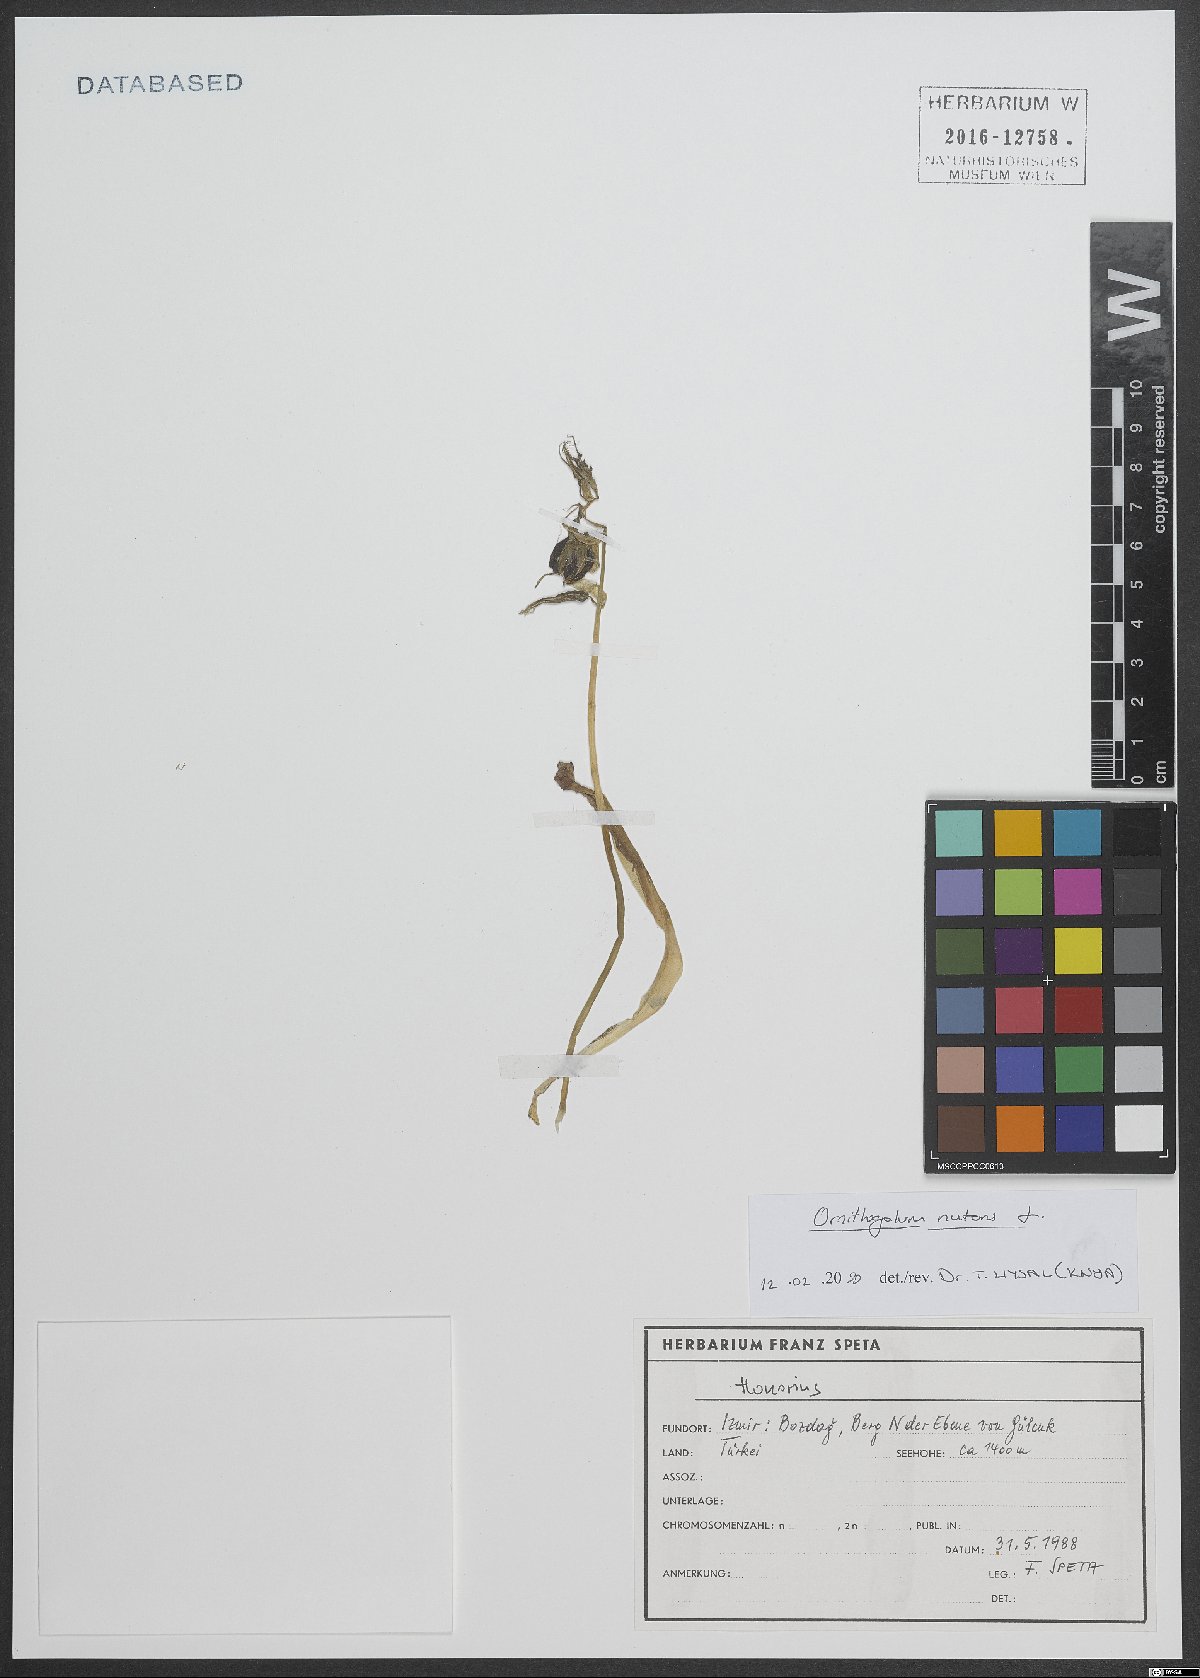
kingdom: Plantae
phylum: Tracheophyta
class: Magnoliopsida
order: Lamiales
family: Plantaginaceae
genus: Veronica
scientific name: Veronica
